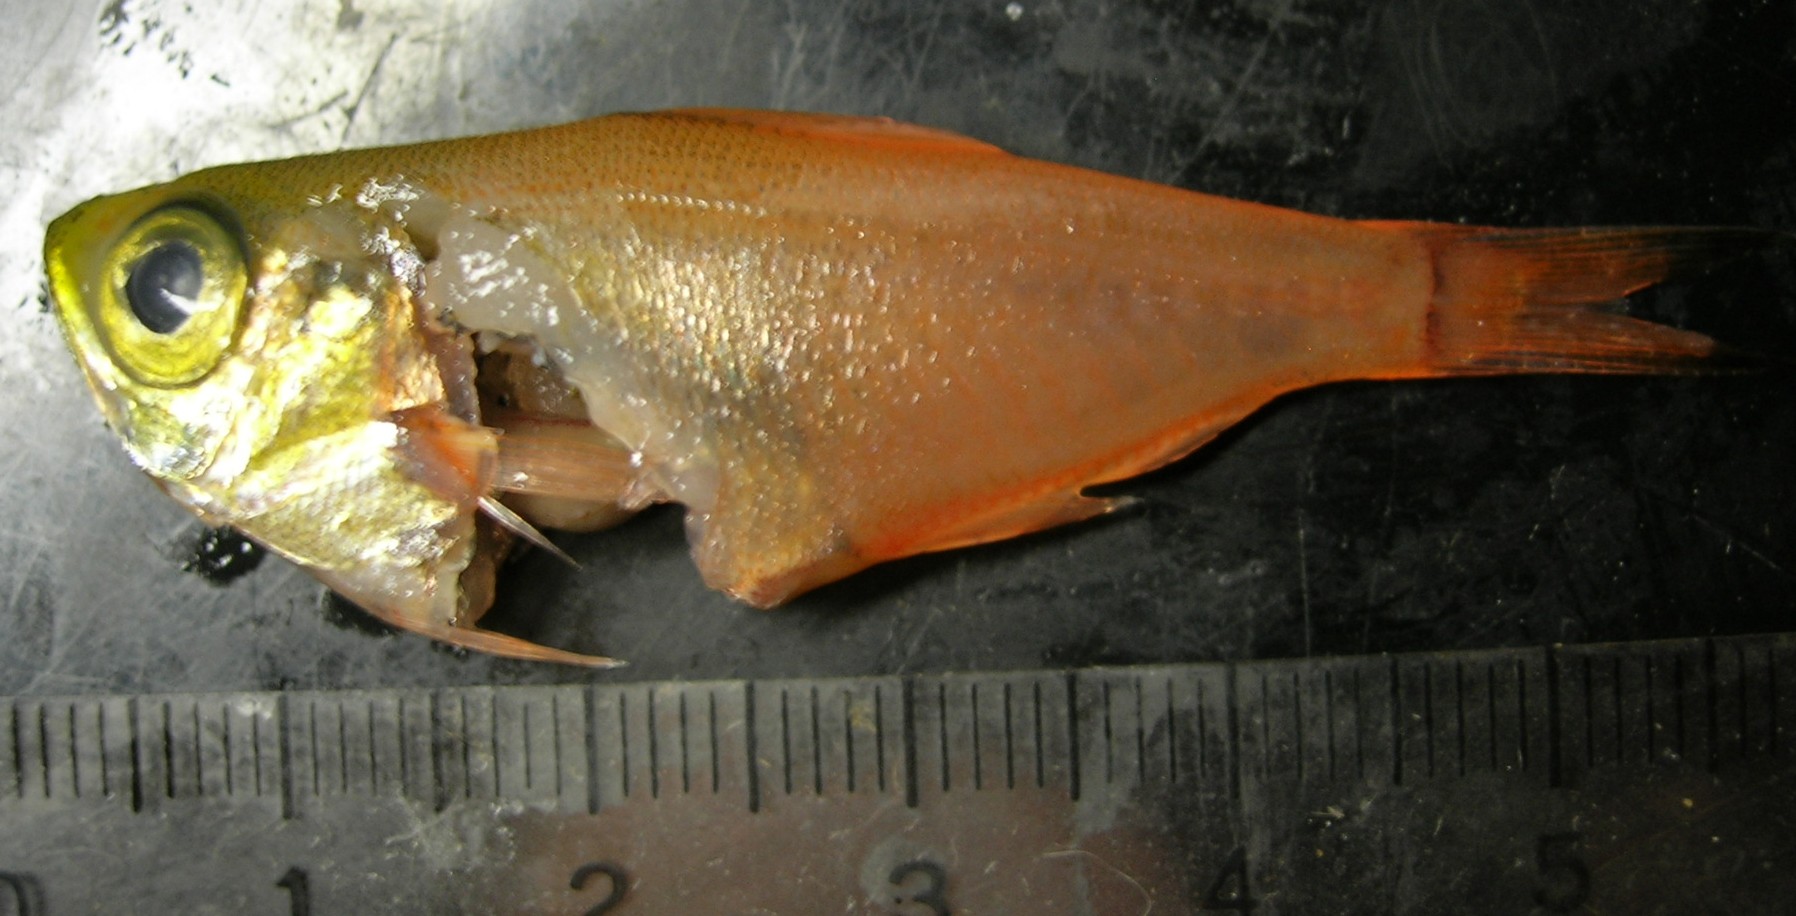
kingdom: Animalia
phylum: Chordata
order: Perciformes
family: Pempheridae
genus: Parapriacanthus
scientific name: Parapriacanthus kwazulu
